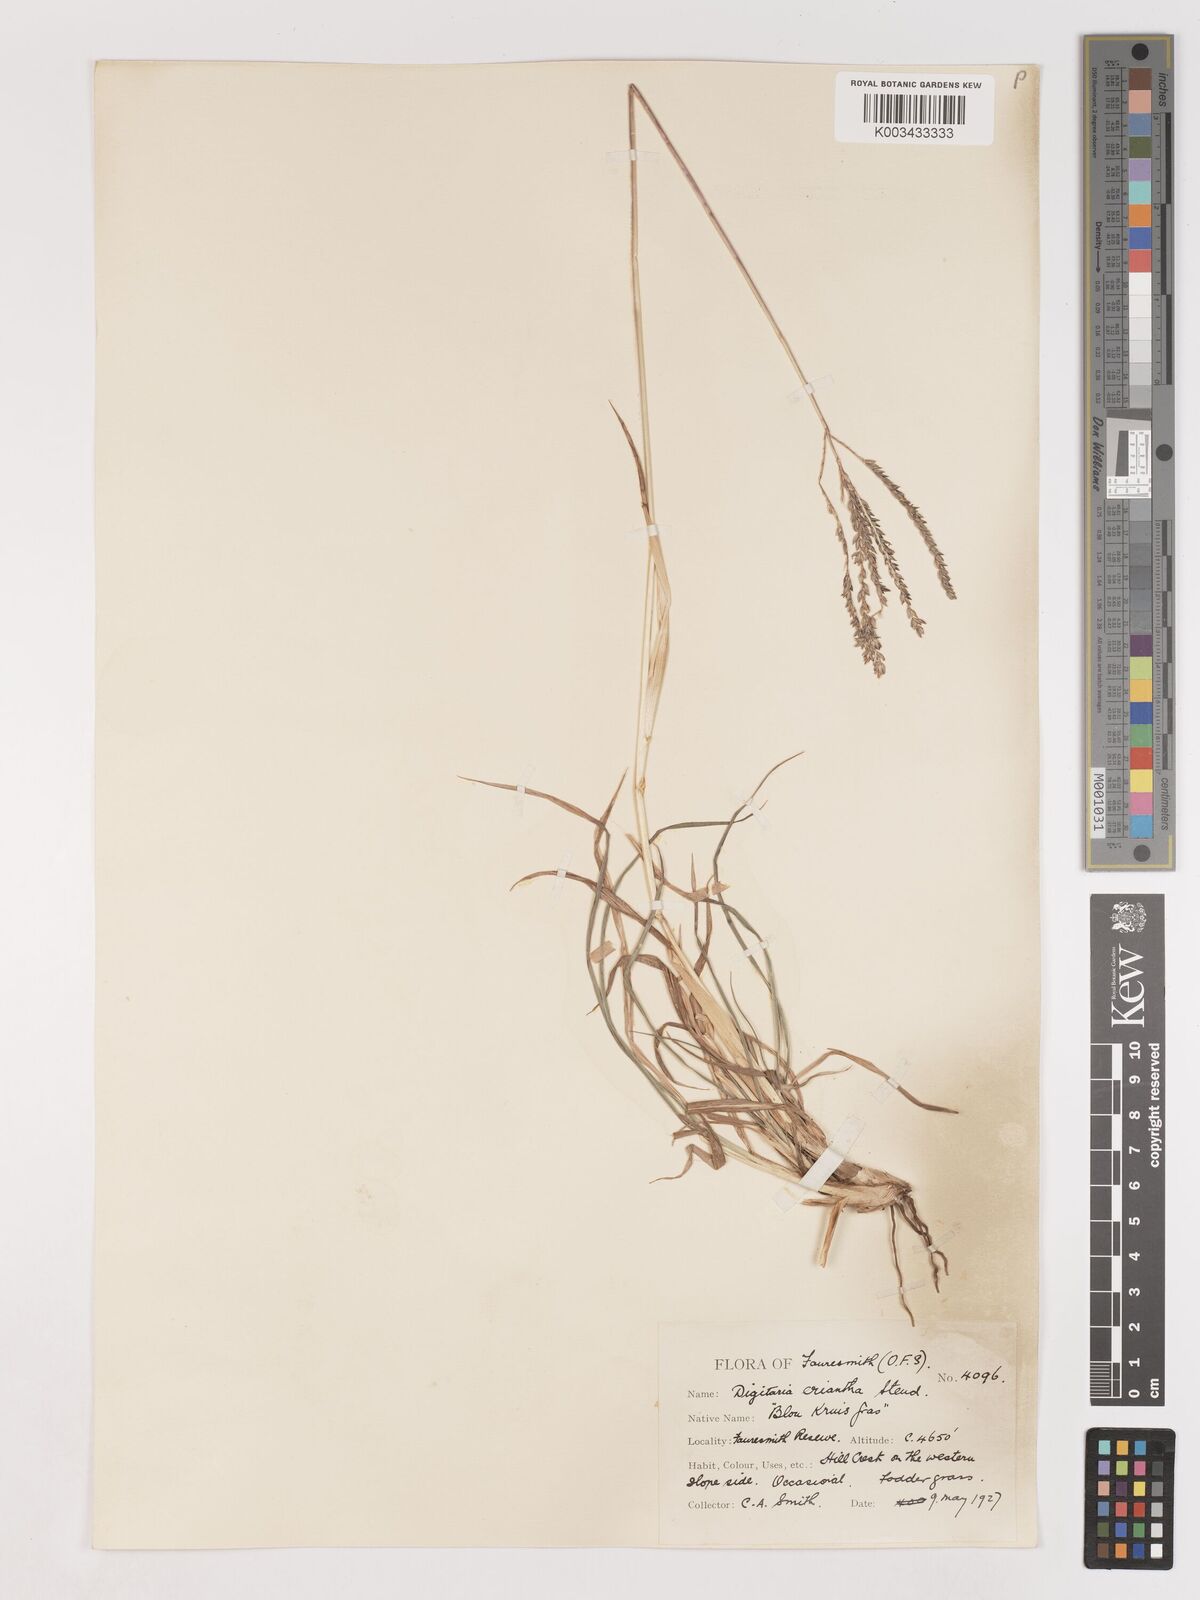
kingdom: Plantae
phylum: Tracheophyta
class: Liliopsida
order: Poales
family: Poaceae
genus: Digitaria
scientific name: Digitaria eriantha
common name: Digitgrass
